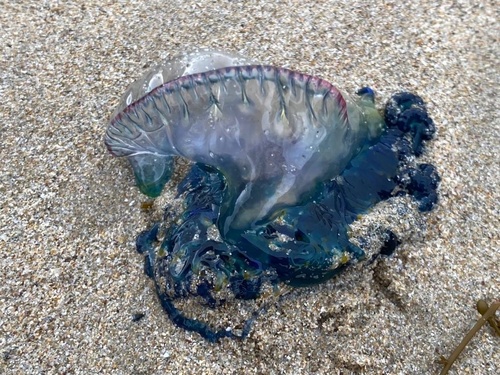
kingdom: Animalia
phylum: Cnidaria
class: Hydrozoa
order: Siphonophorae
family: Physaliidae
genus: Physalia
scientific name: Physalia physalis
